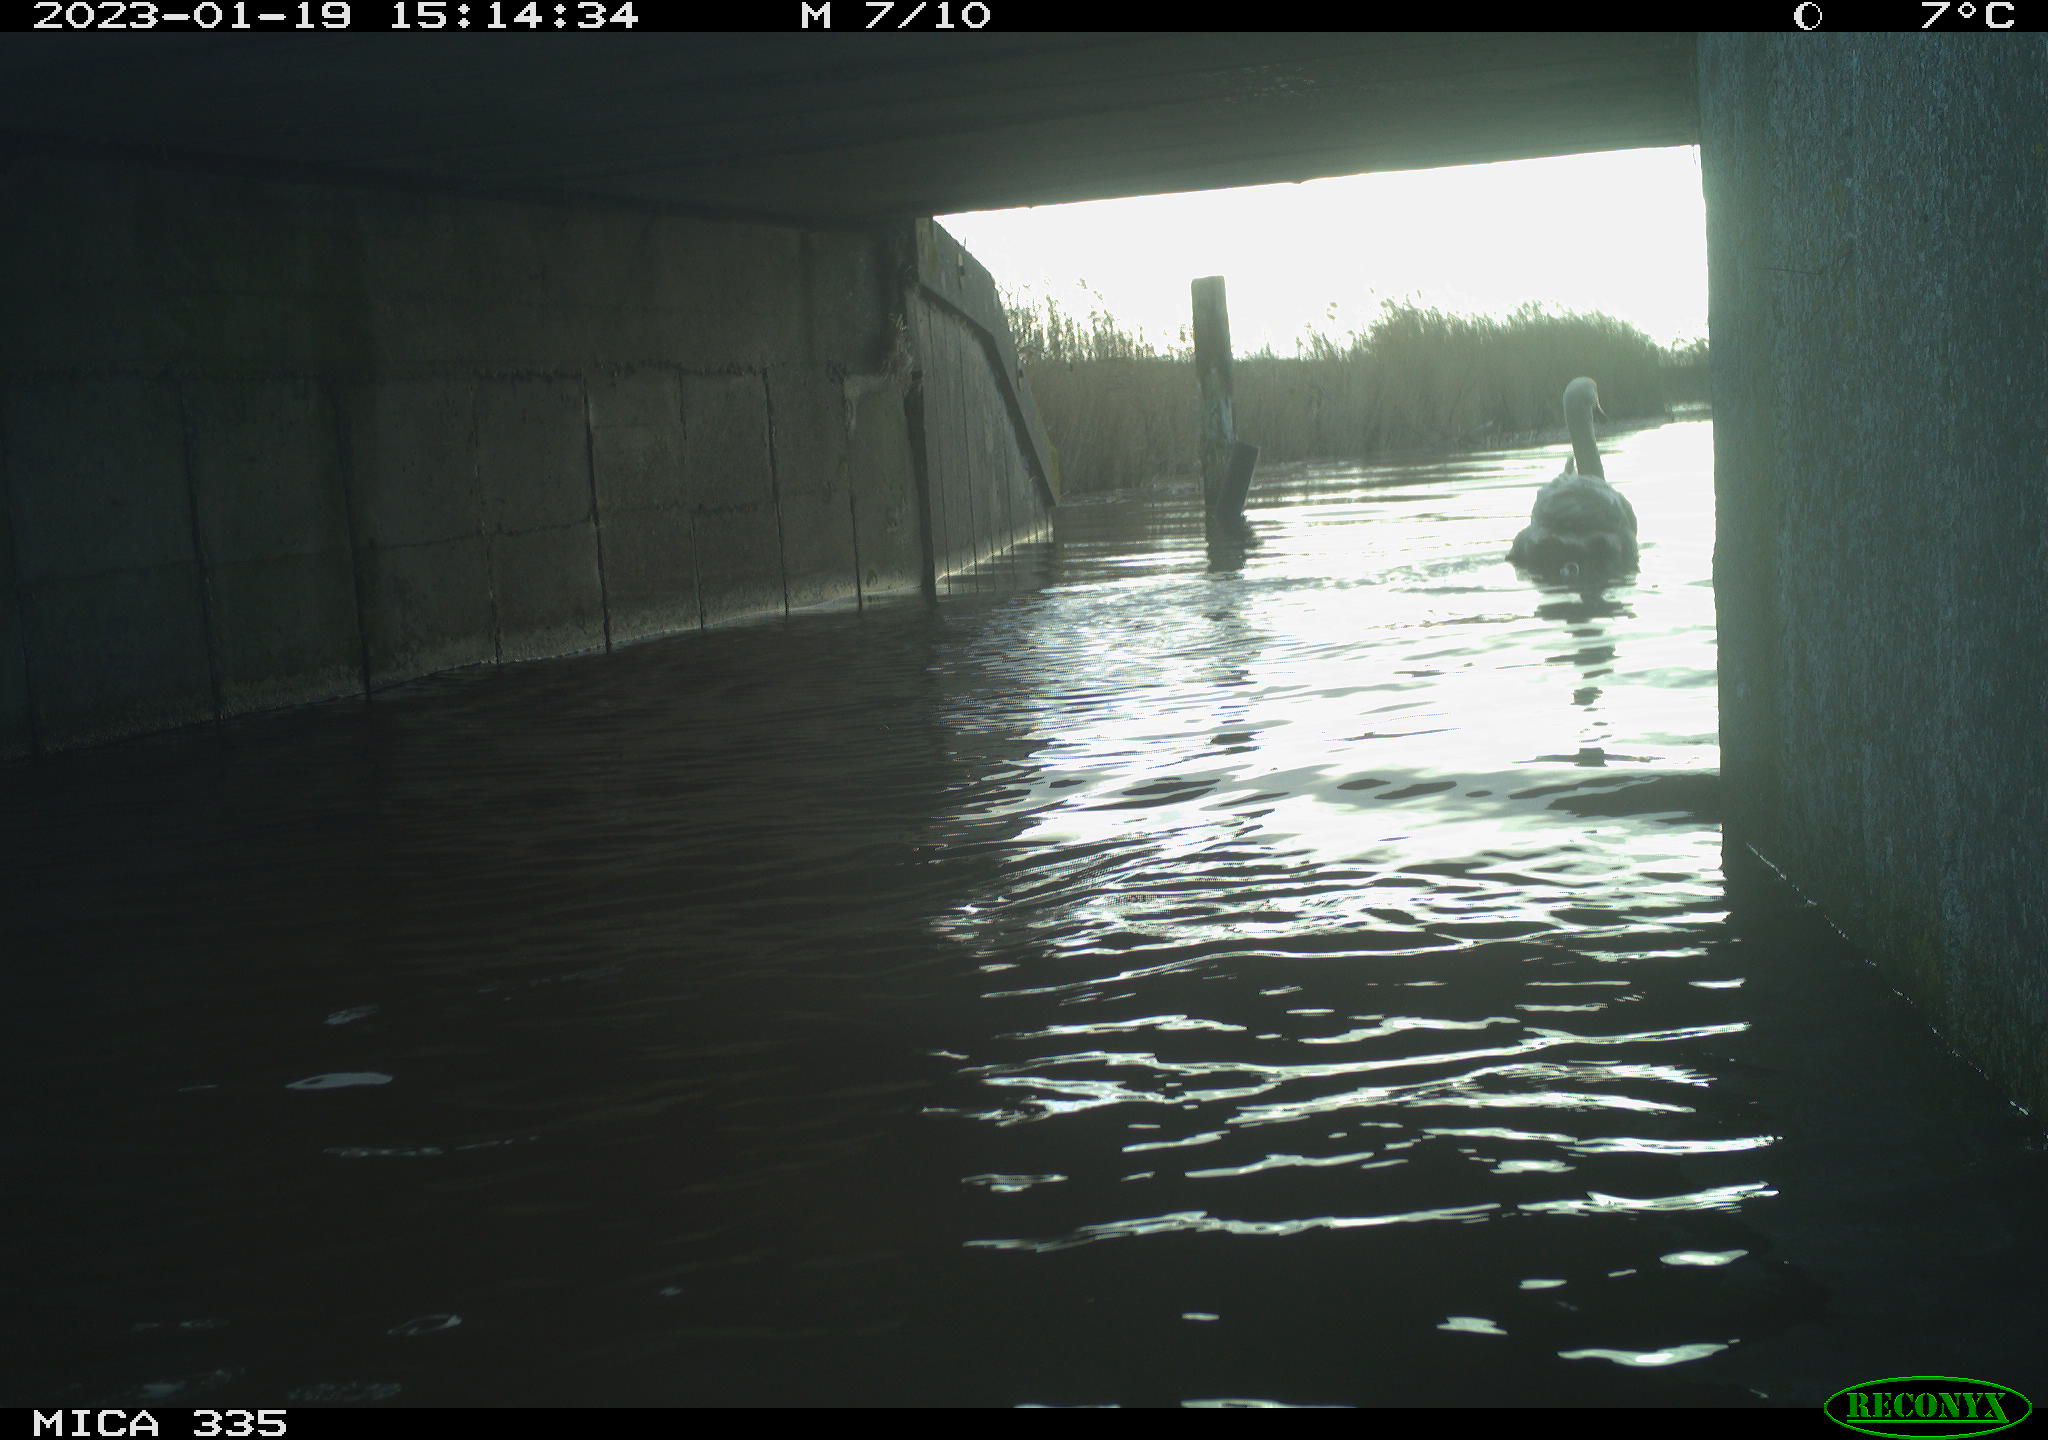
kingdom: Animalia
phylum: Chordata
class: Aves
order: Anseriformes
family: Anatidae
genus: Cygnus
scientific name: Cygnus olor
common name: Mute swan
